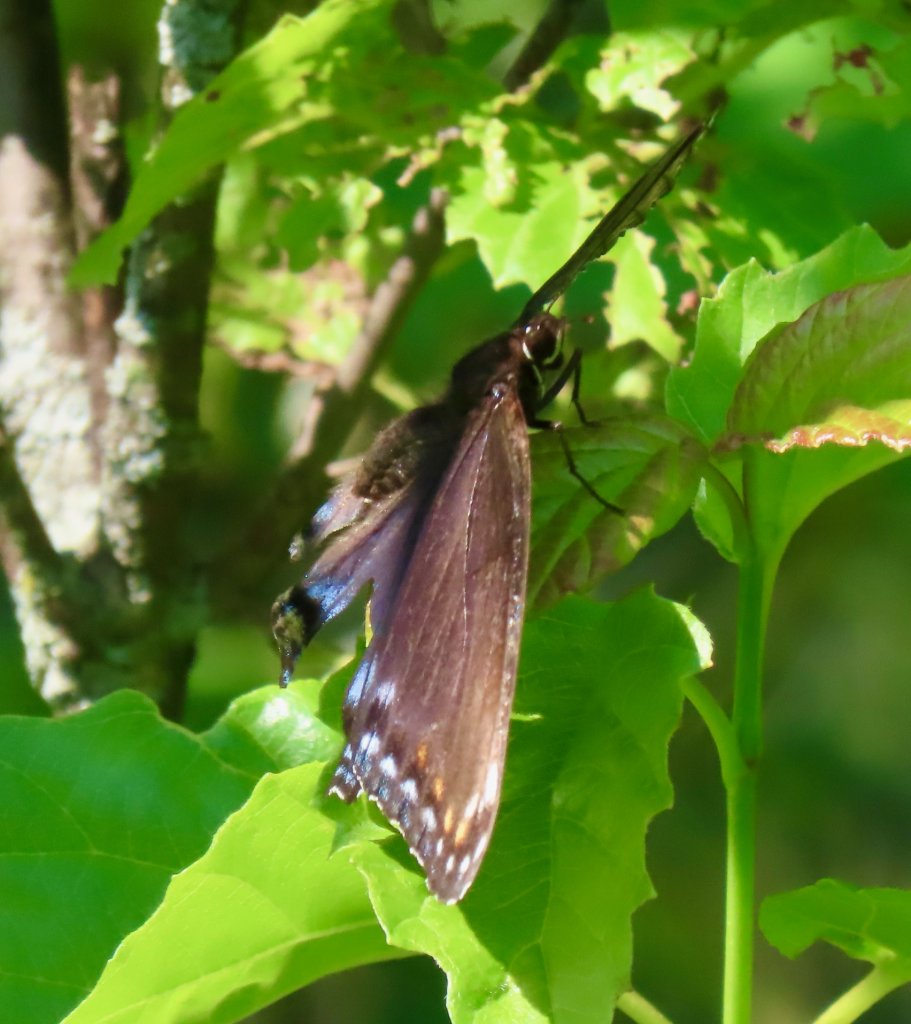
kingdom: Animalia
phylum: Arthropoda
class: Insecta
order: Lepidoptera
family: Nymphalidae
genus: Limenitis
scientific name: Limenitis arthemis
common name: Red-spotted Admiral
